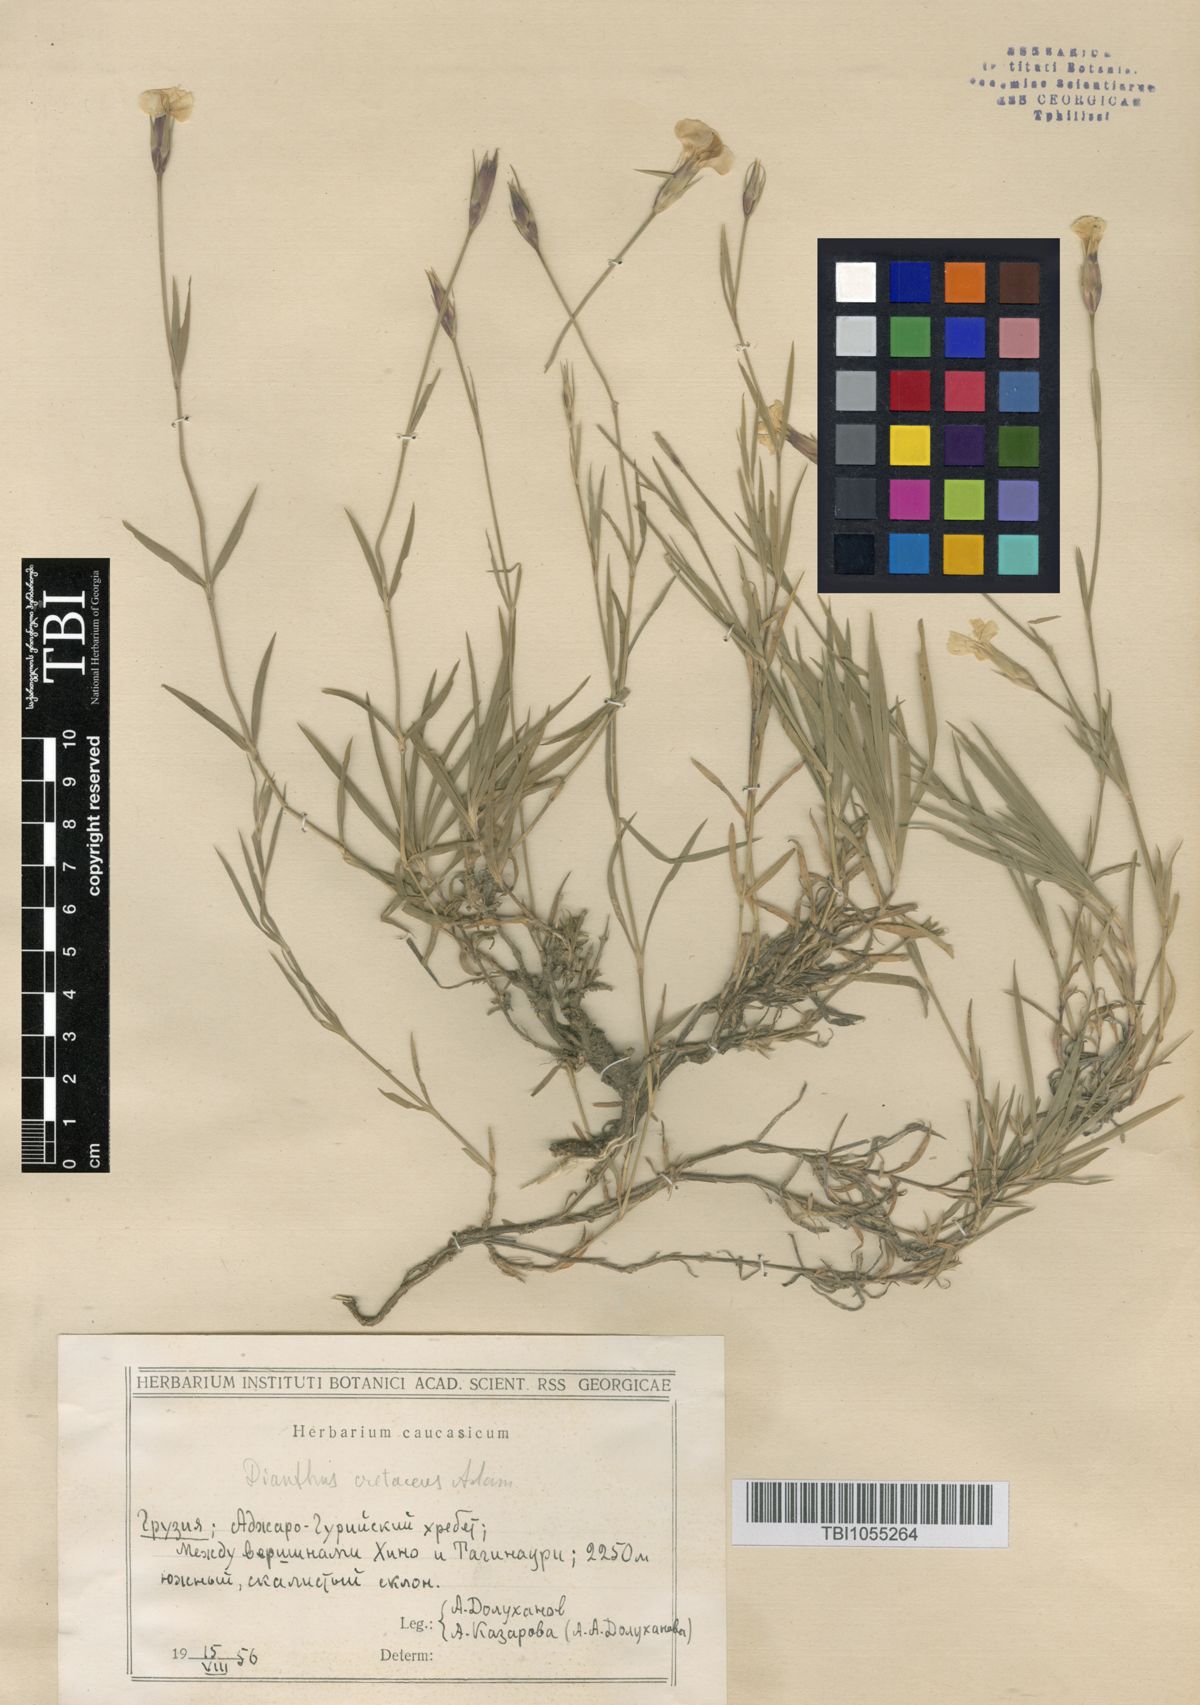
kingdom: Plantae
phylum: Tracheophyta
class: Magnoliopsida
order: Caryophyllales
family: Caryophyllaceae
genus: Dianthus
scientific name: Dianthus cretaceus
